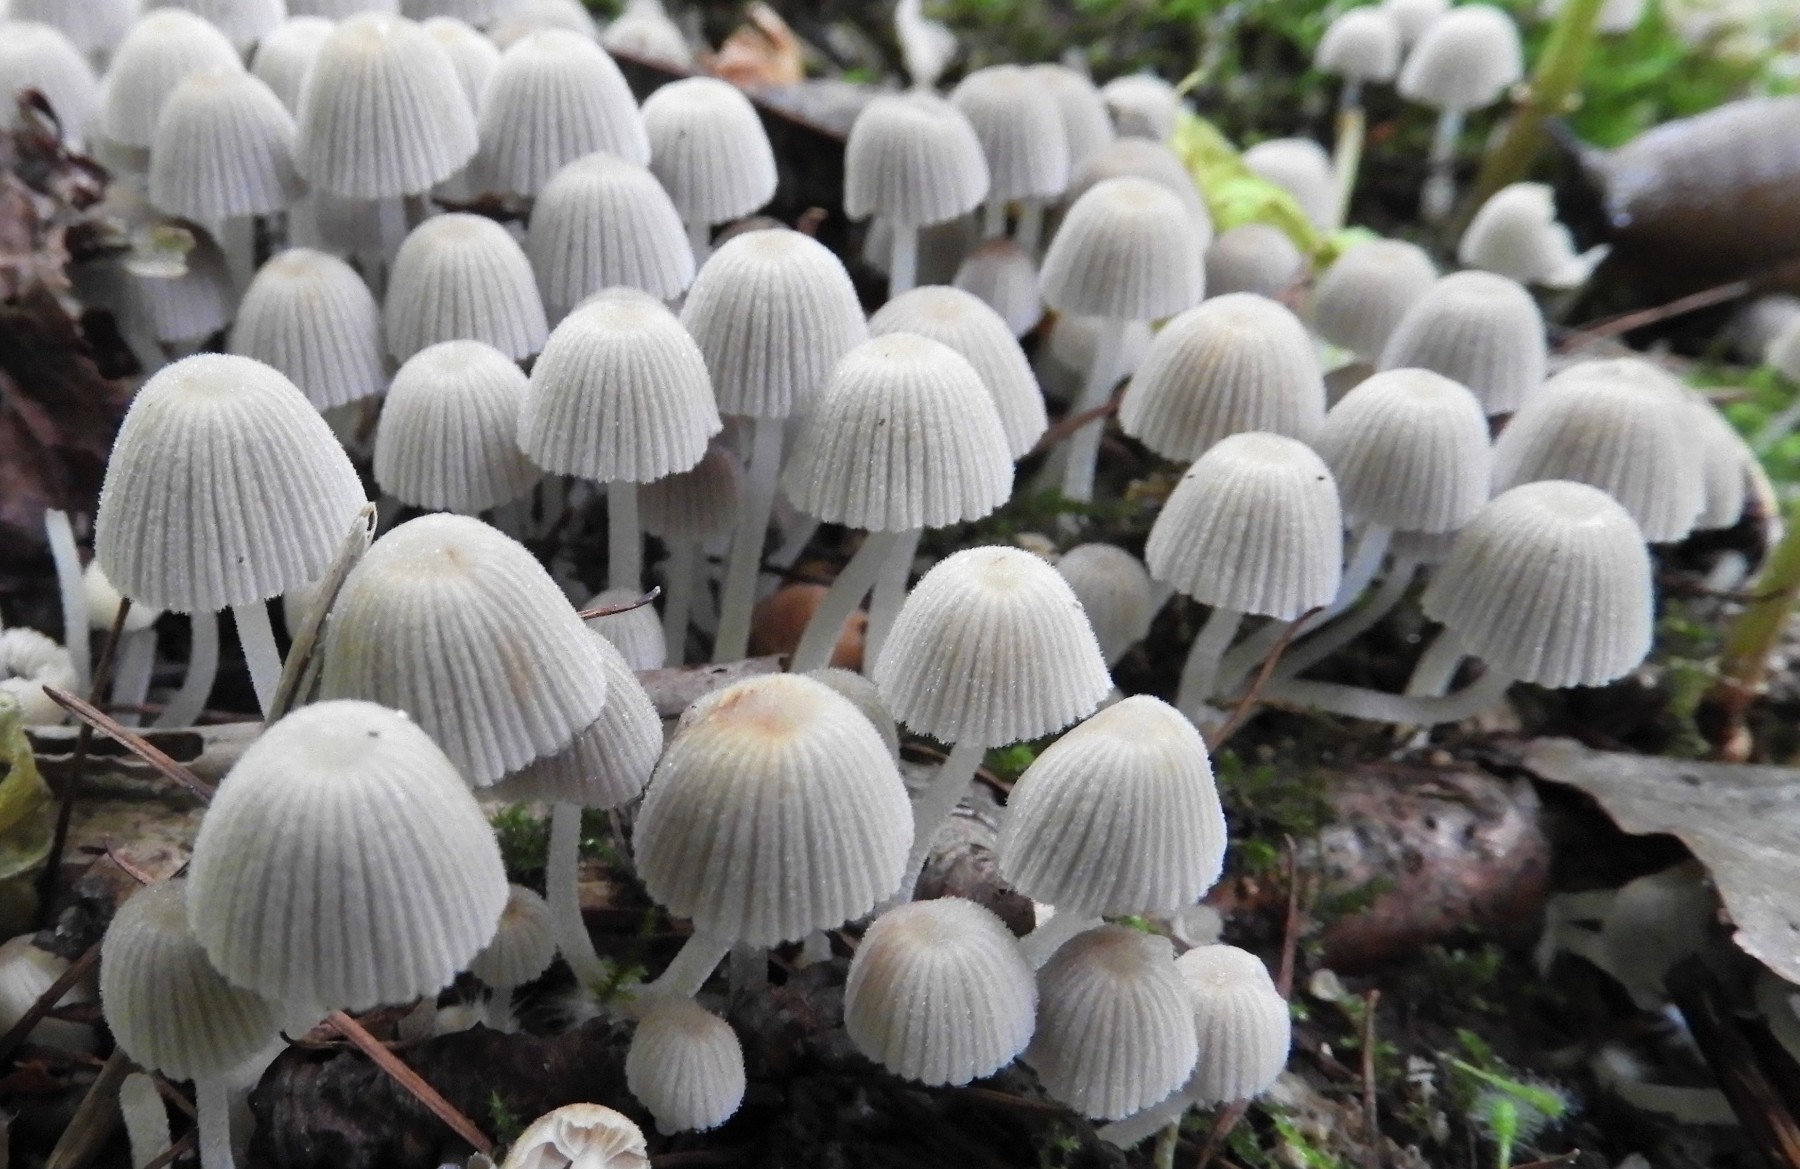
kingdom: Fungi
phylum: Basidiomycota
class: Agaricomycetes
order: Agaricales
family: Psathyrellaceae
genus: Coprinellus
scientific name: Coprinellus disseminatus
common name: bredsået blækhat
